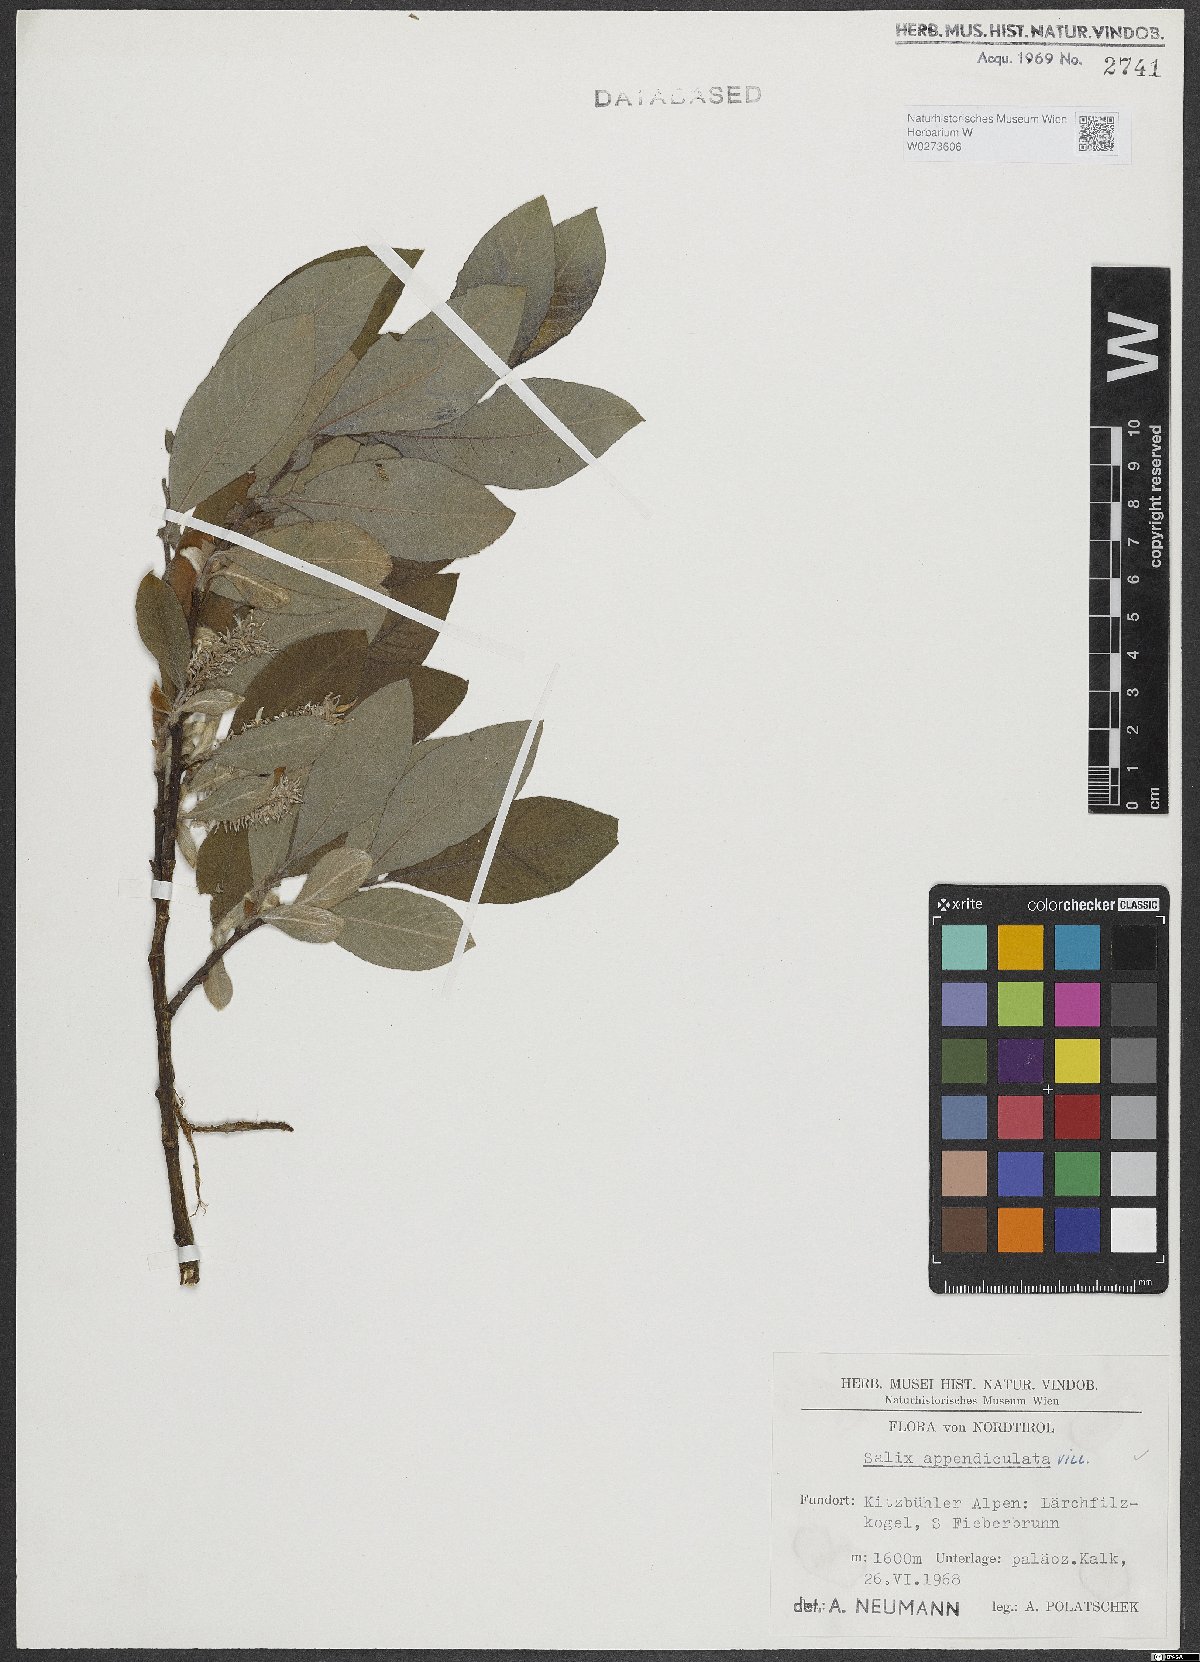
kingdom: Plantae
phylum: Tracheophyta
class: Magnoliopsida
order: Malpighiales
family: Salicaceae
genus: Salix
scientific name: Salix appendiculata
